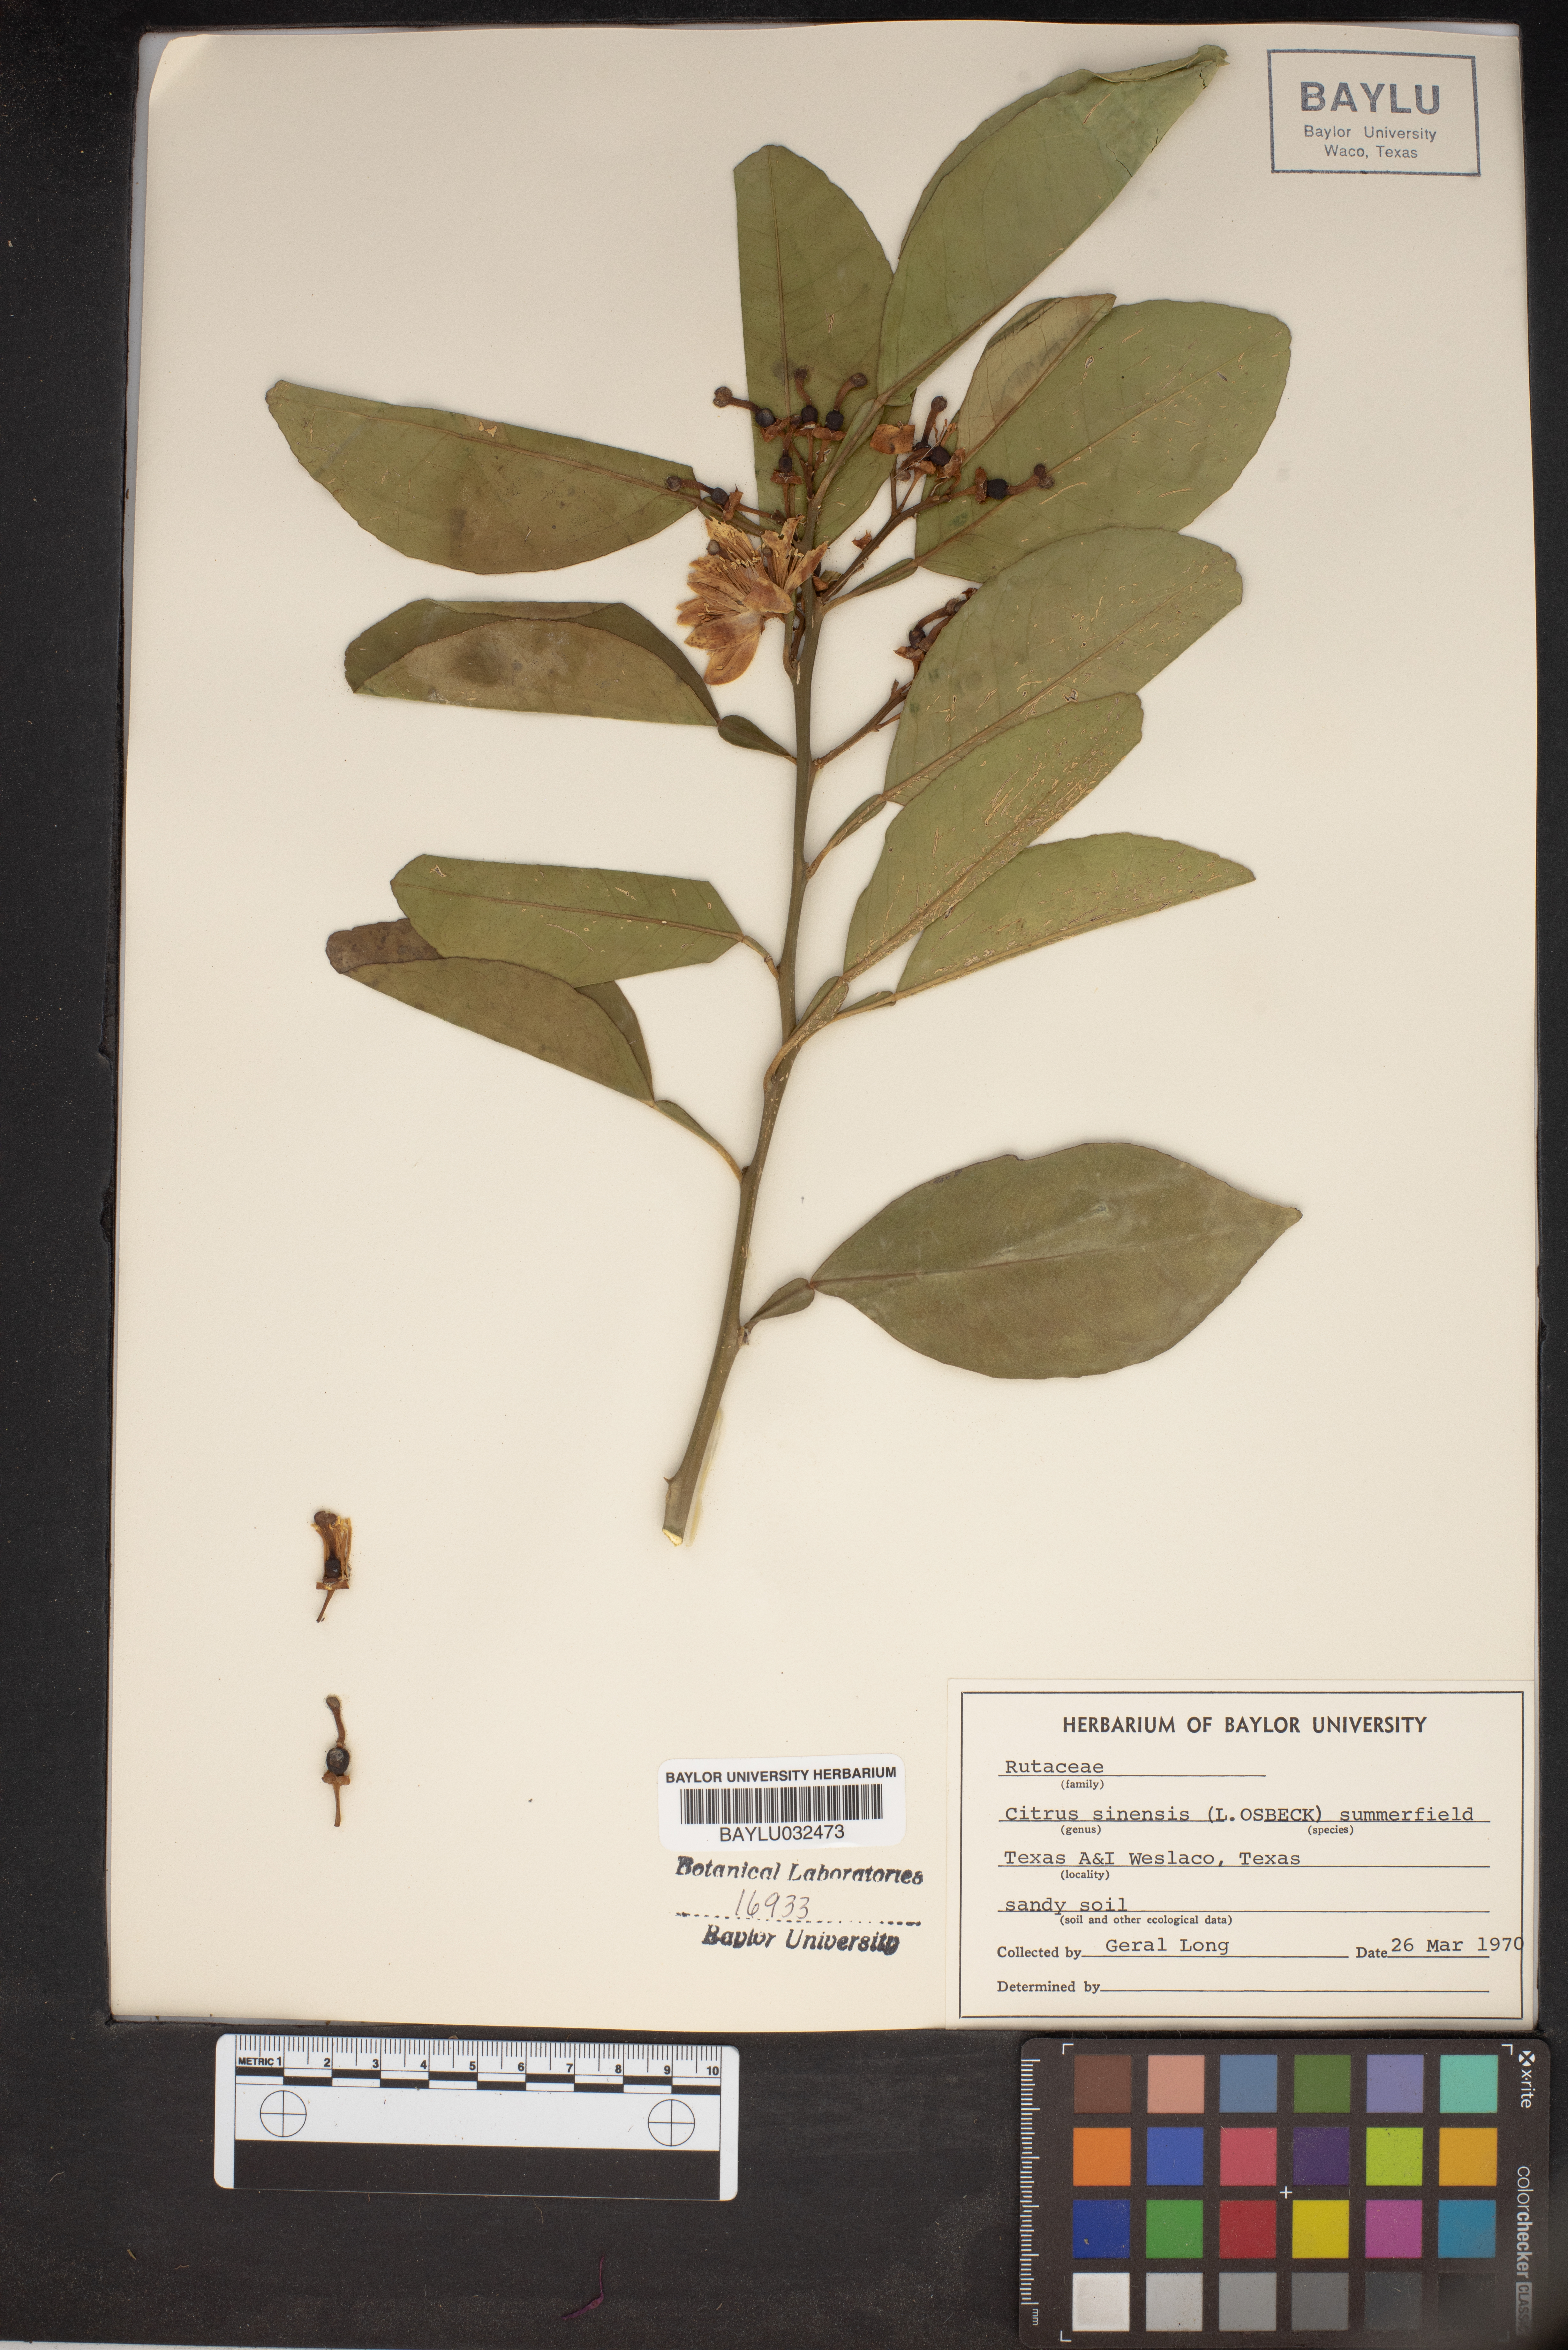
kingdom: Plantae
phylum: Tracheophyta
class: Magnoliopsida
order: Sapindales
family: Rutaceae
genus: Citrus
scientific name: Citrus aurantium
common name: Sour orange
